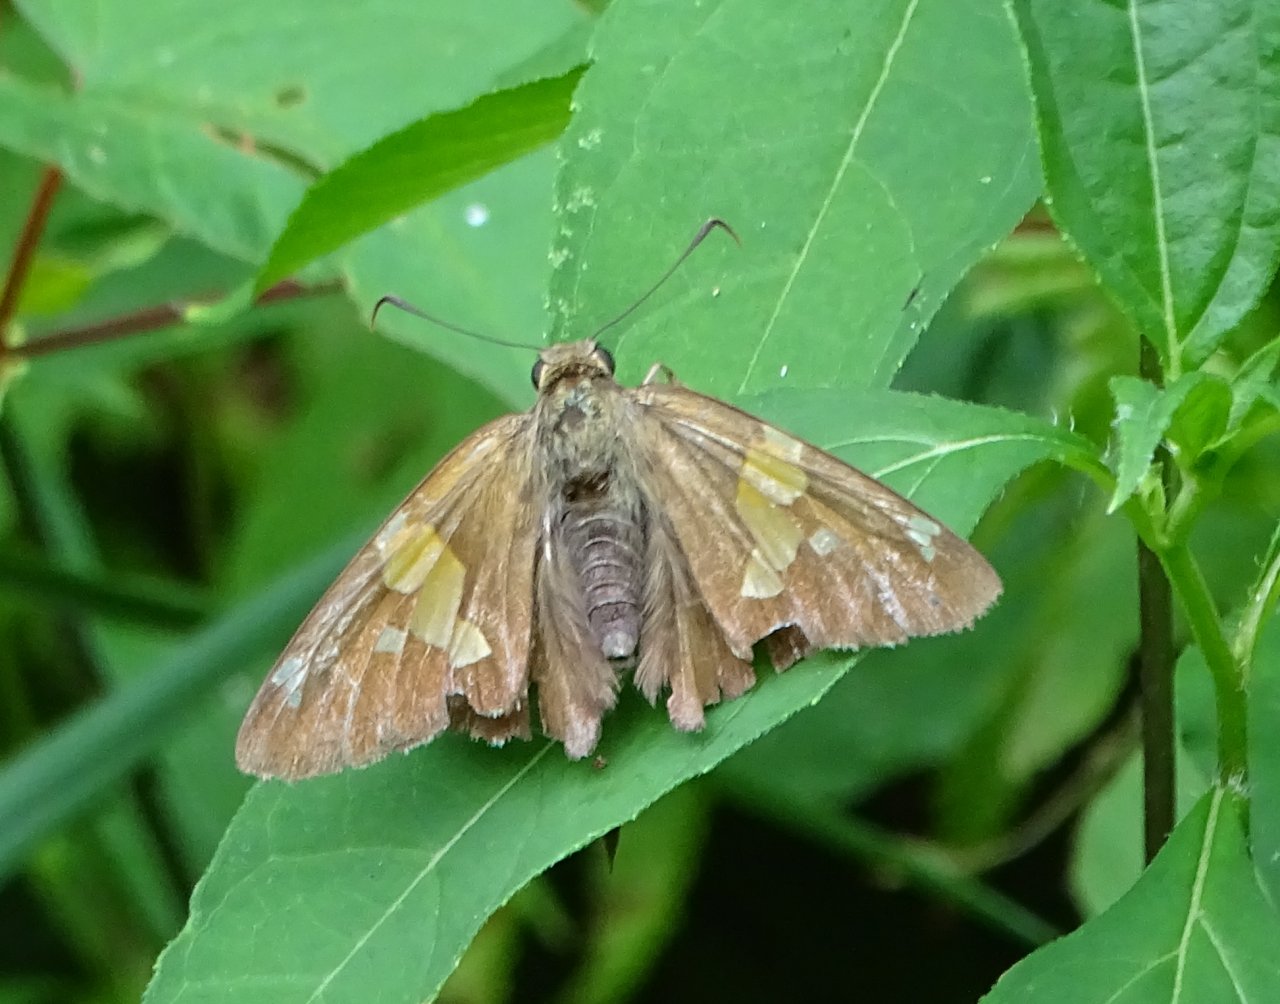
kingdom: Animalia
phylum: Arthropoda
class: Insecta
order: Lepidoptera
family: Hesperiidae
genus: Epargyreus
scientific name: Epargyreus clarus
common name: Silver-spotted Skipper
